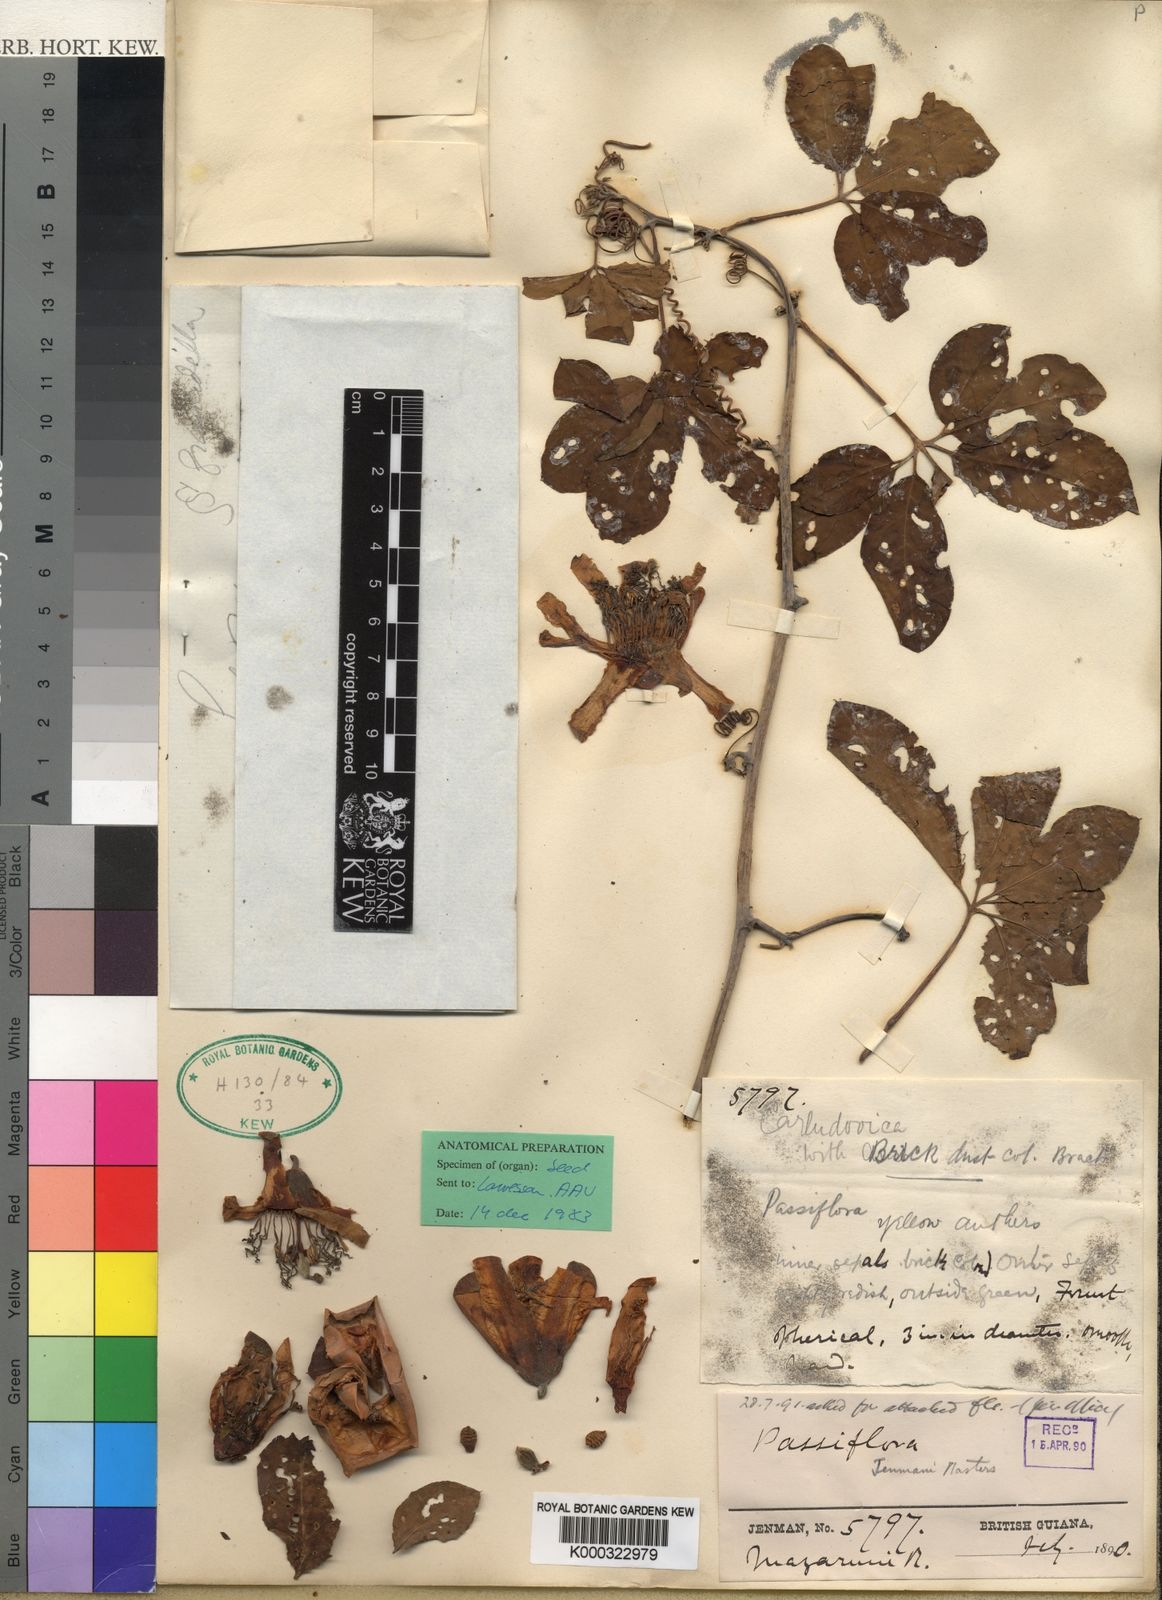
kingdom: Plantae
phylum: Tracheophyta
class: Magnoliopsida
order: Malpighiales
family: Passifloraceae
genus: Passiflora
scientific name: Passiflora cirrhiflora
